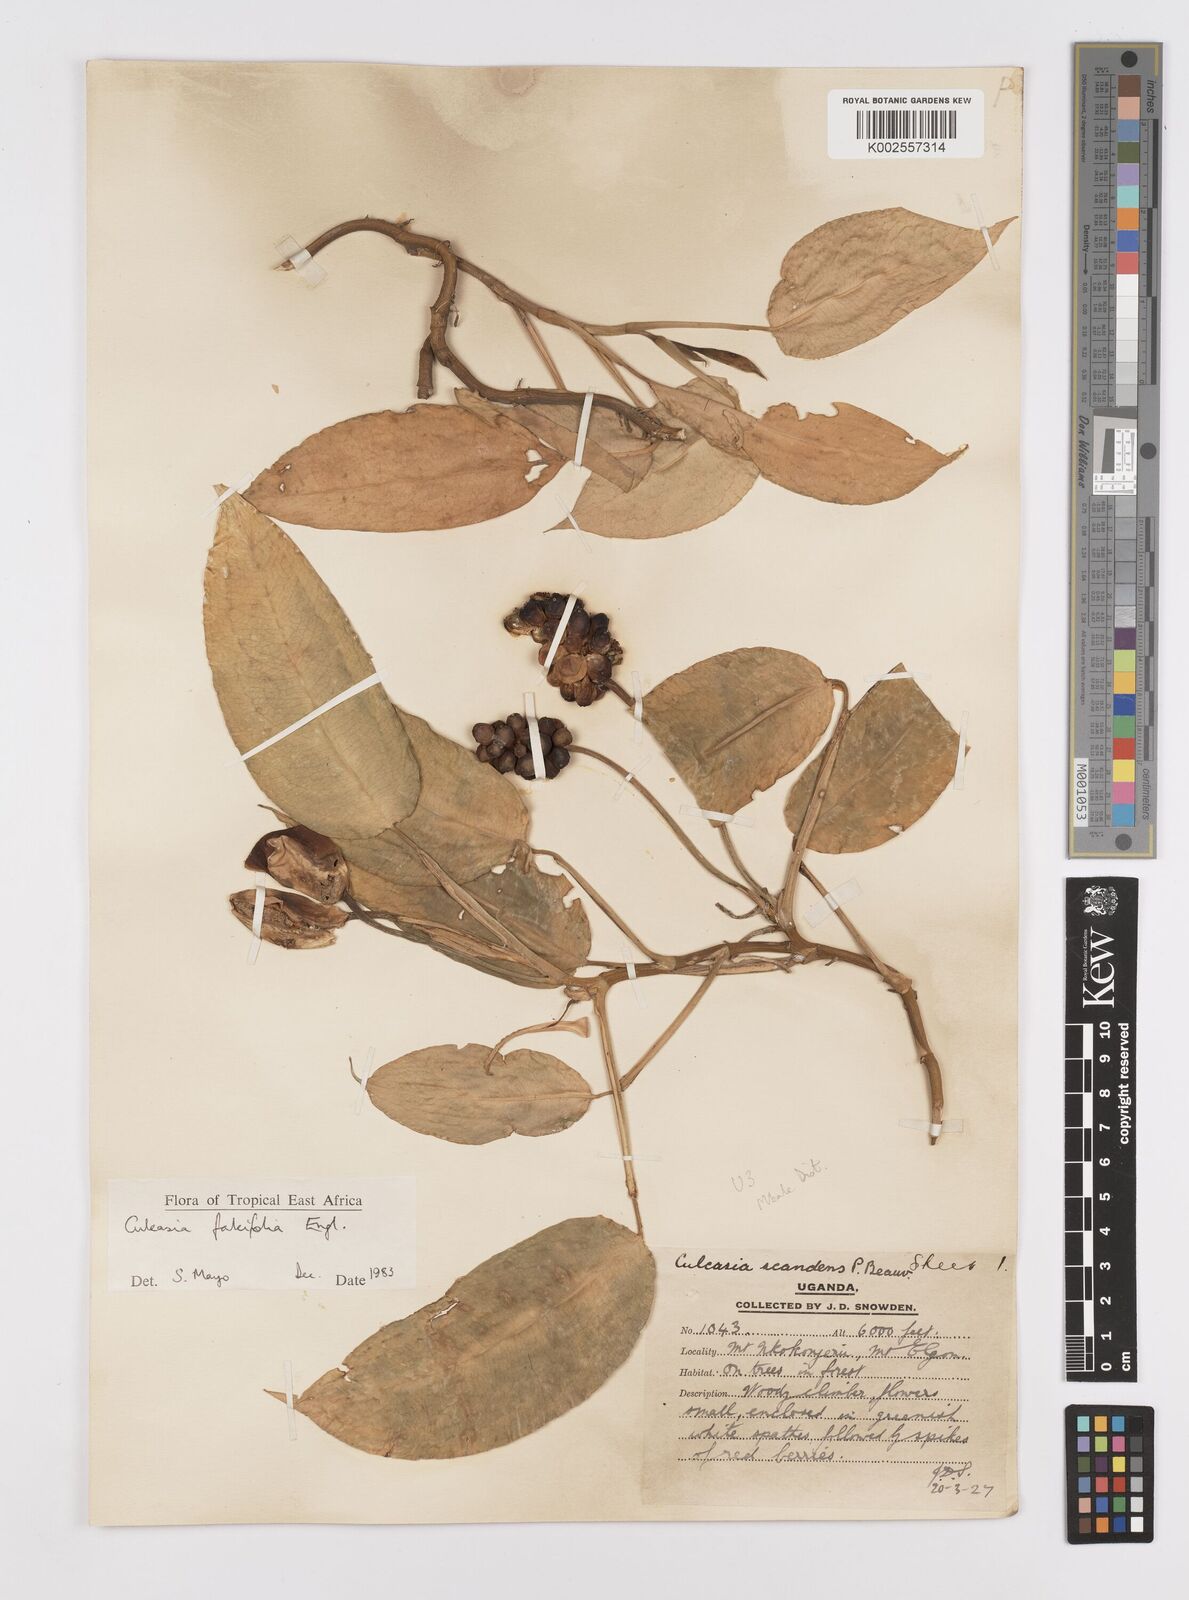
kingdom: Plantae
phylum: Tracheophyta
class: Liliopsida
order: Alismatales
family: Araceae
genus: Culcasia
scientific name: Culcasia falcifolia
